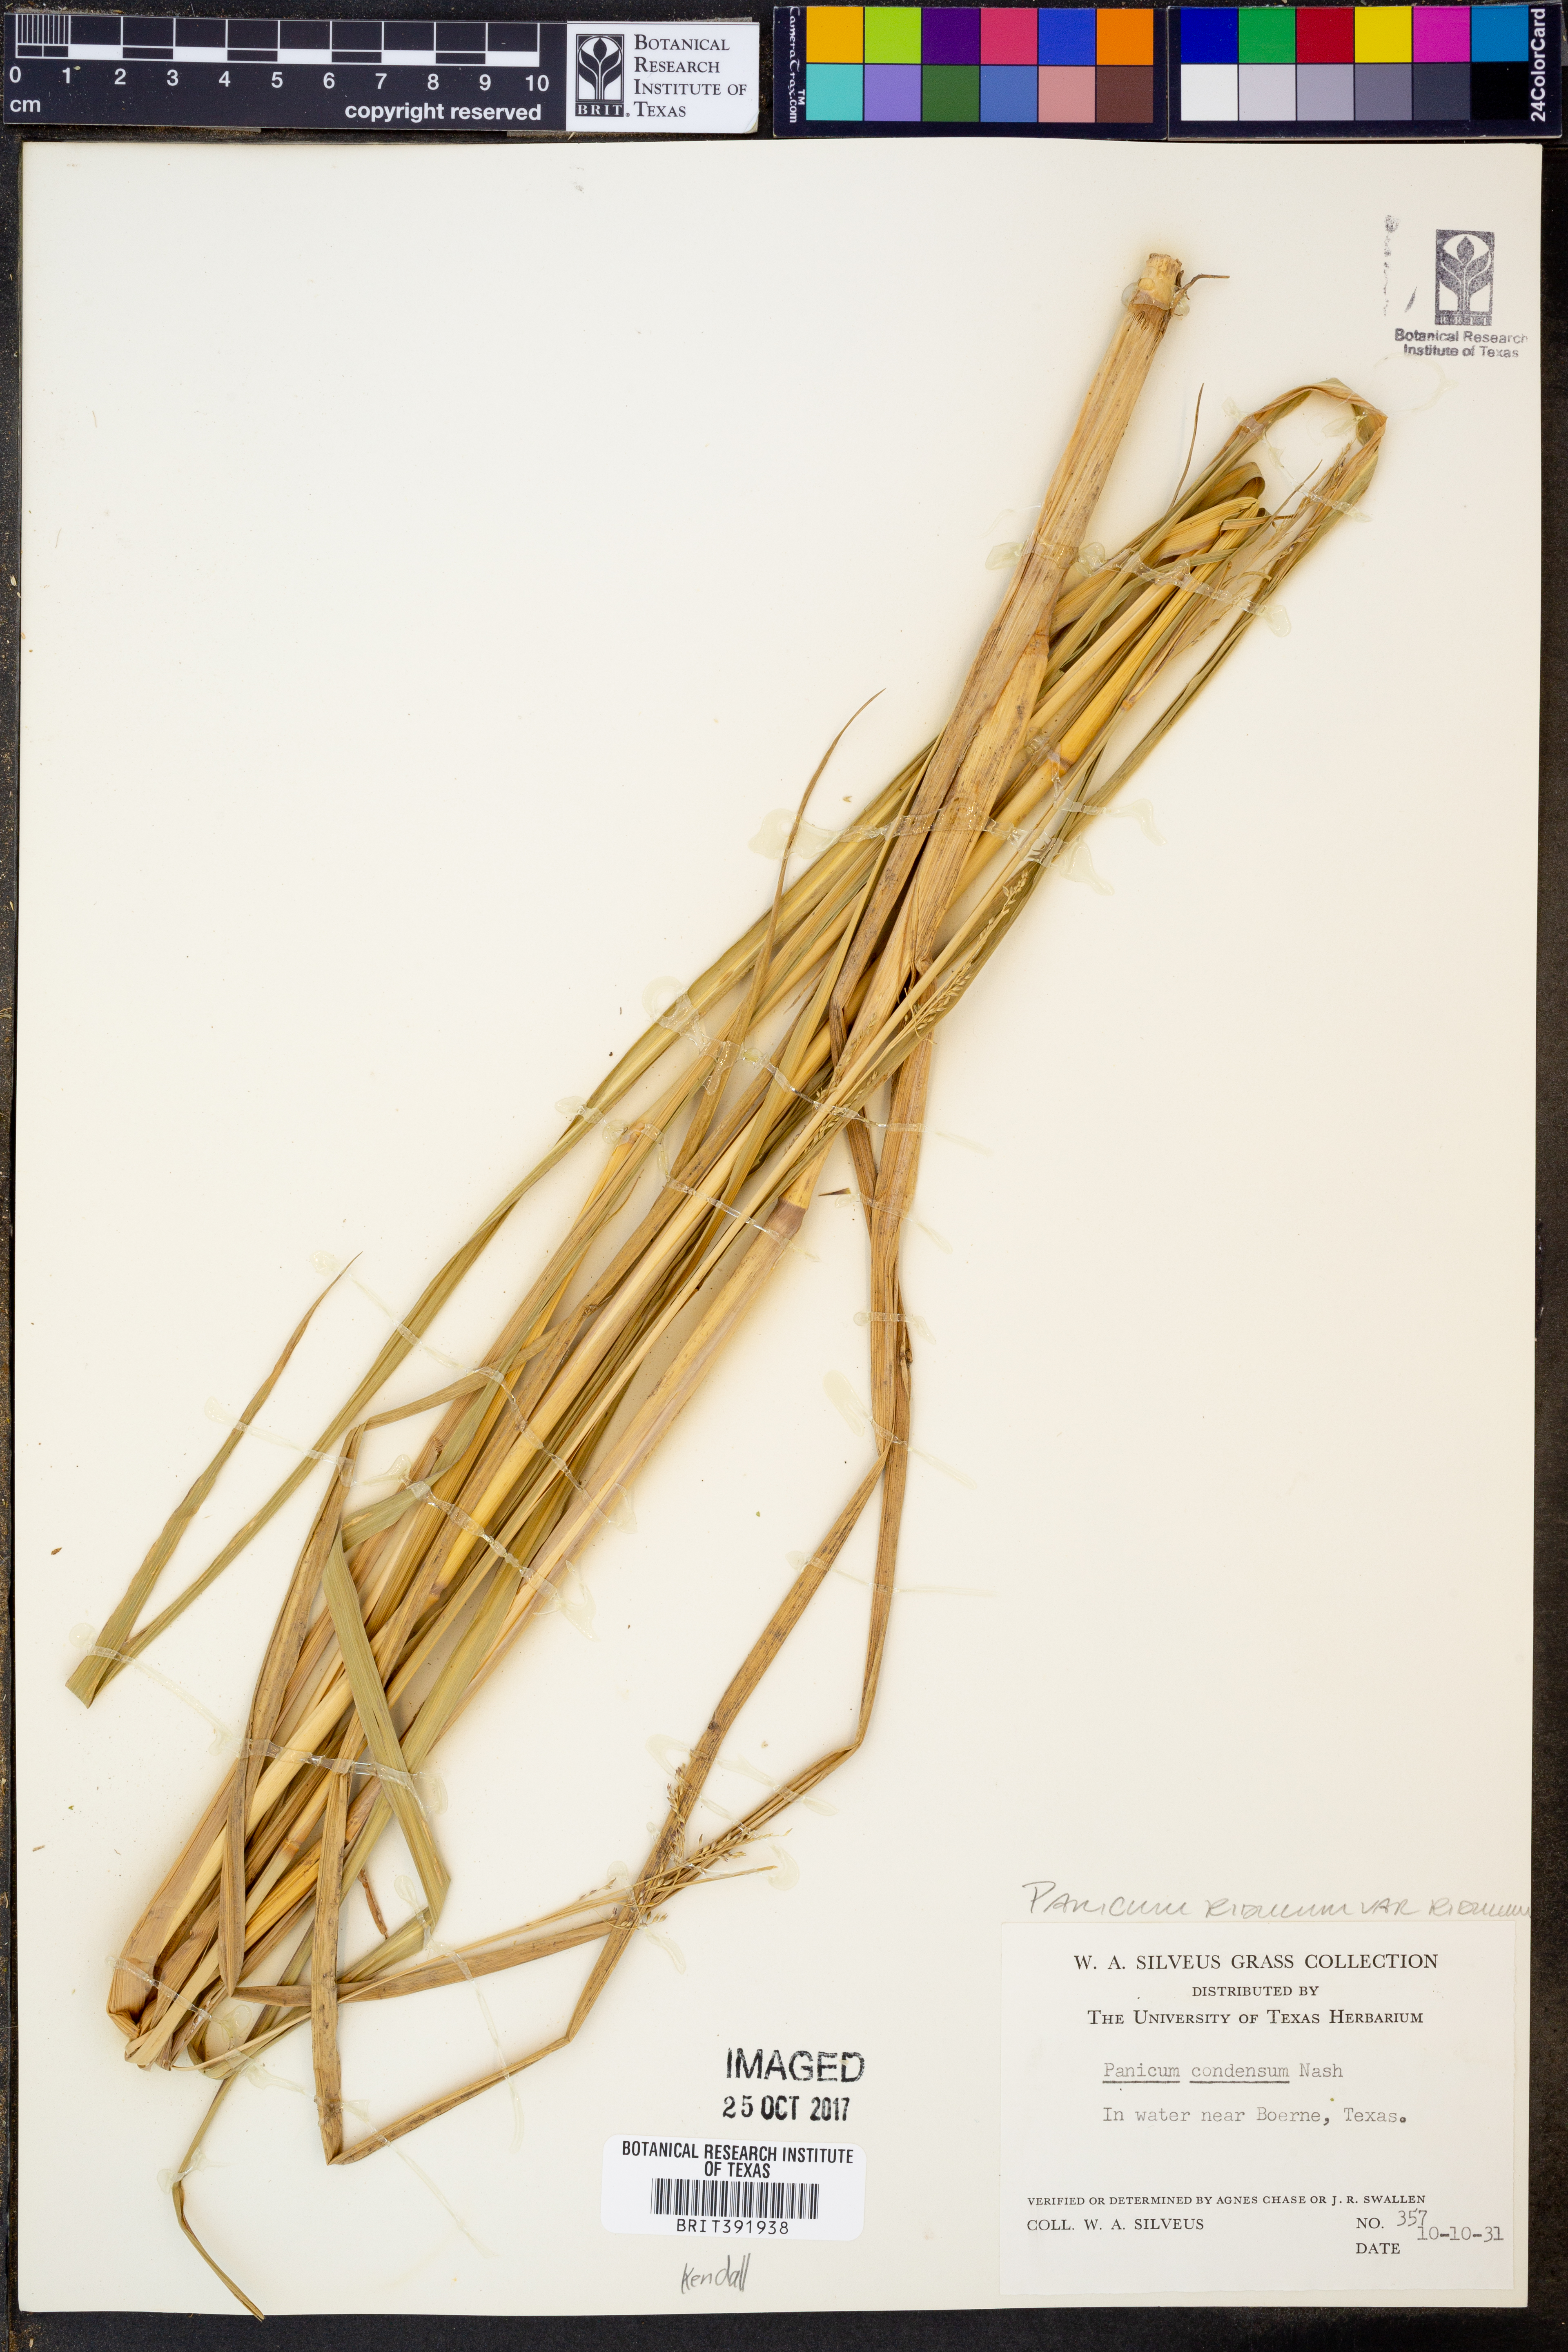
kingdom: Plantae
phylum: Tracheophyta
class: Liliopsida
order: Poales
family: Poaceae
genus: Coleataenia
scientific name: Coleataenia rigidula
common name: Redtop panicgrass
